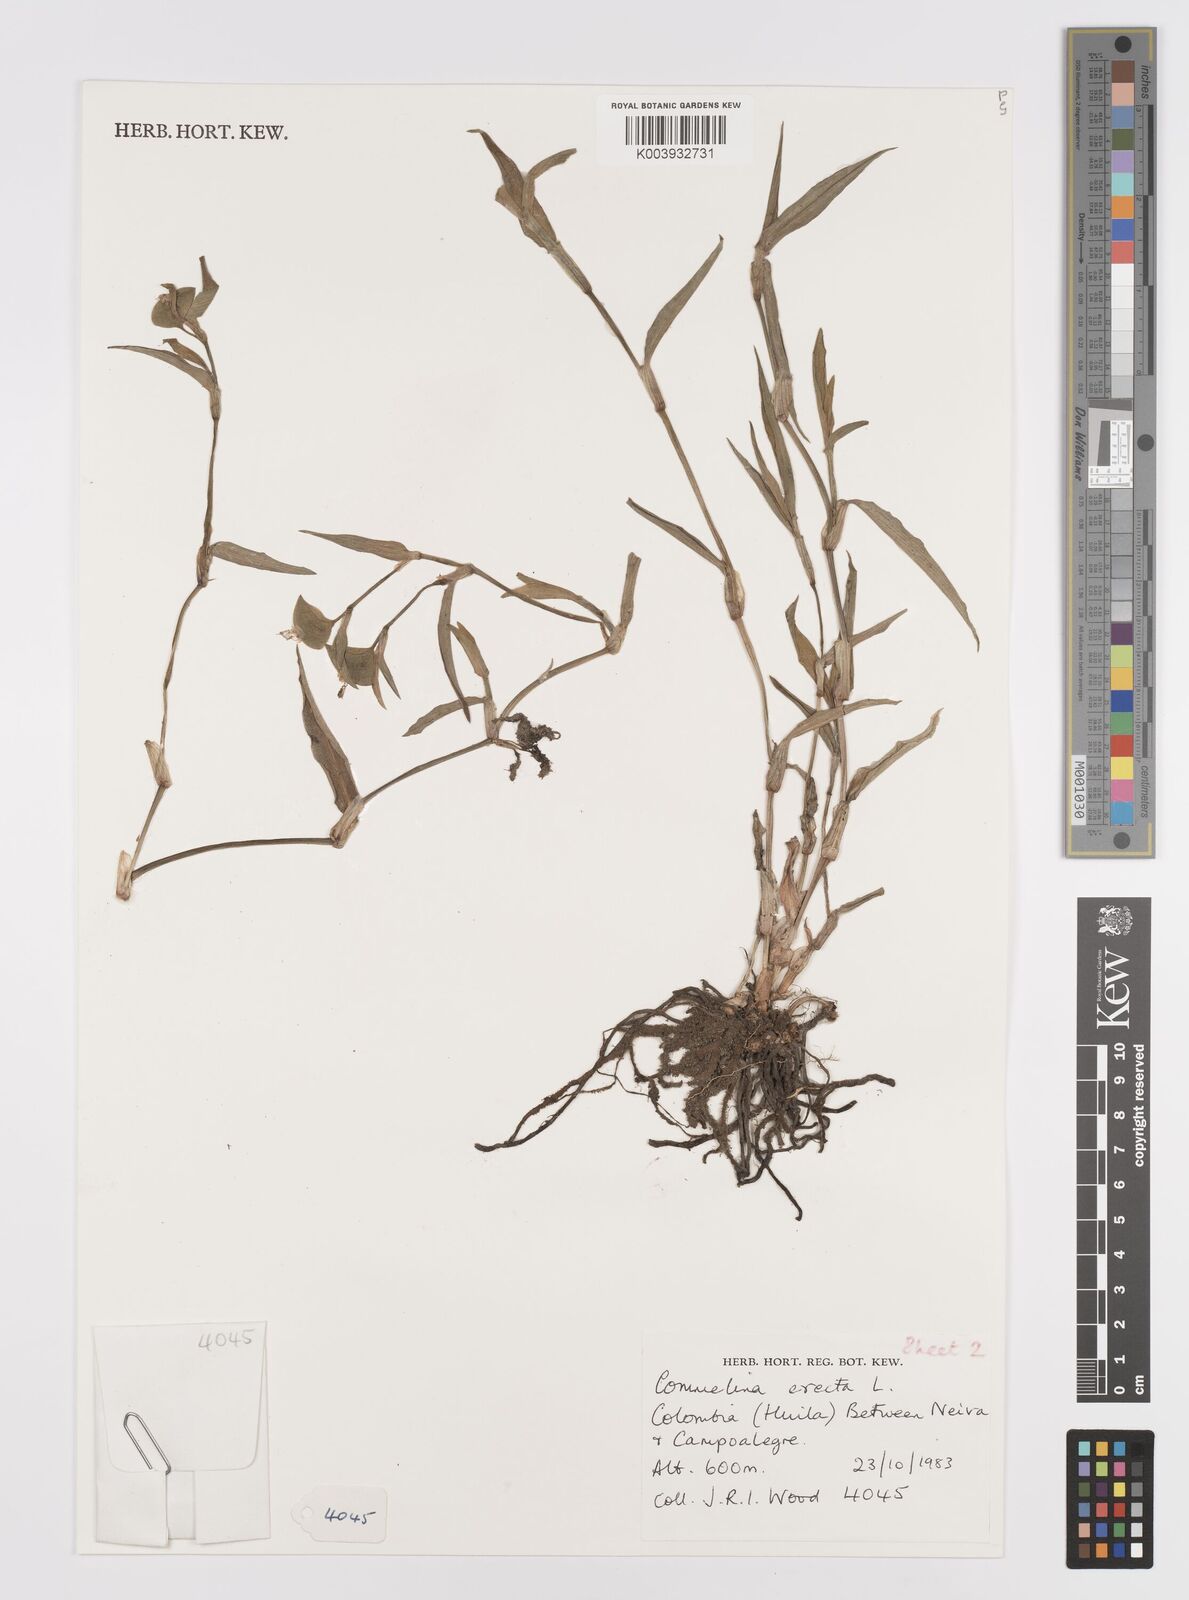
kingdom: Plantae
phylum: Tracheophyta
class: Liliopsida
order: Commelinales
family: Commelinaceae
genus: Commelina
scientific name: Commelina erecta
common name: Blousel blommetjie
